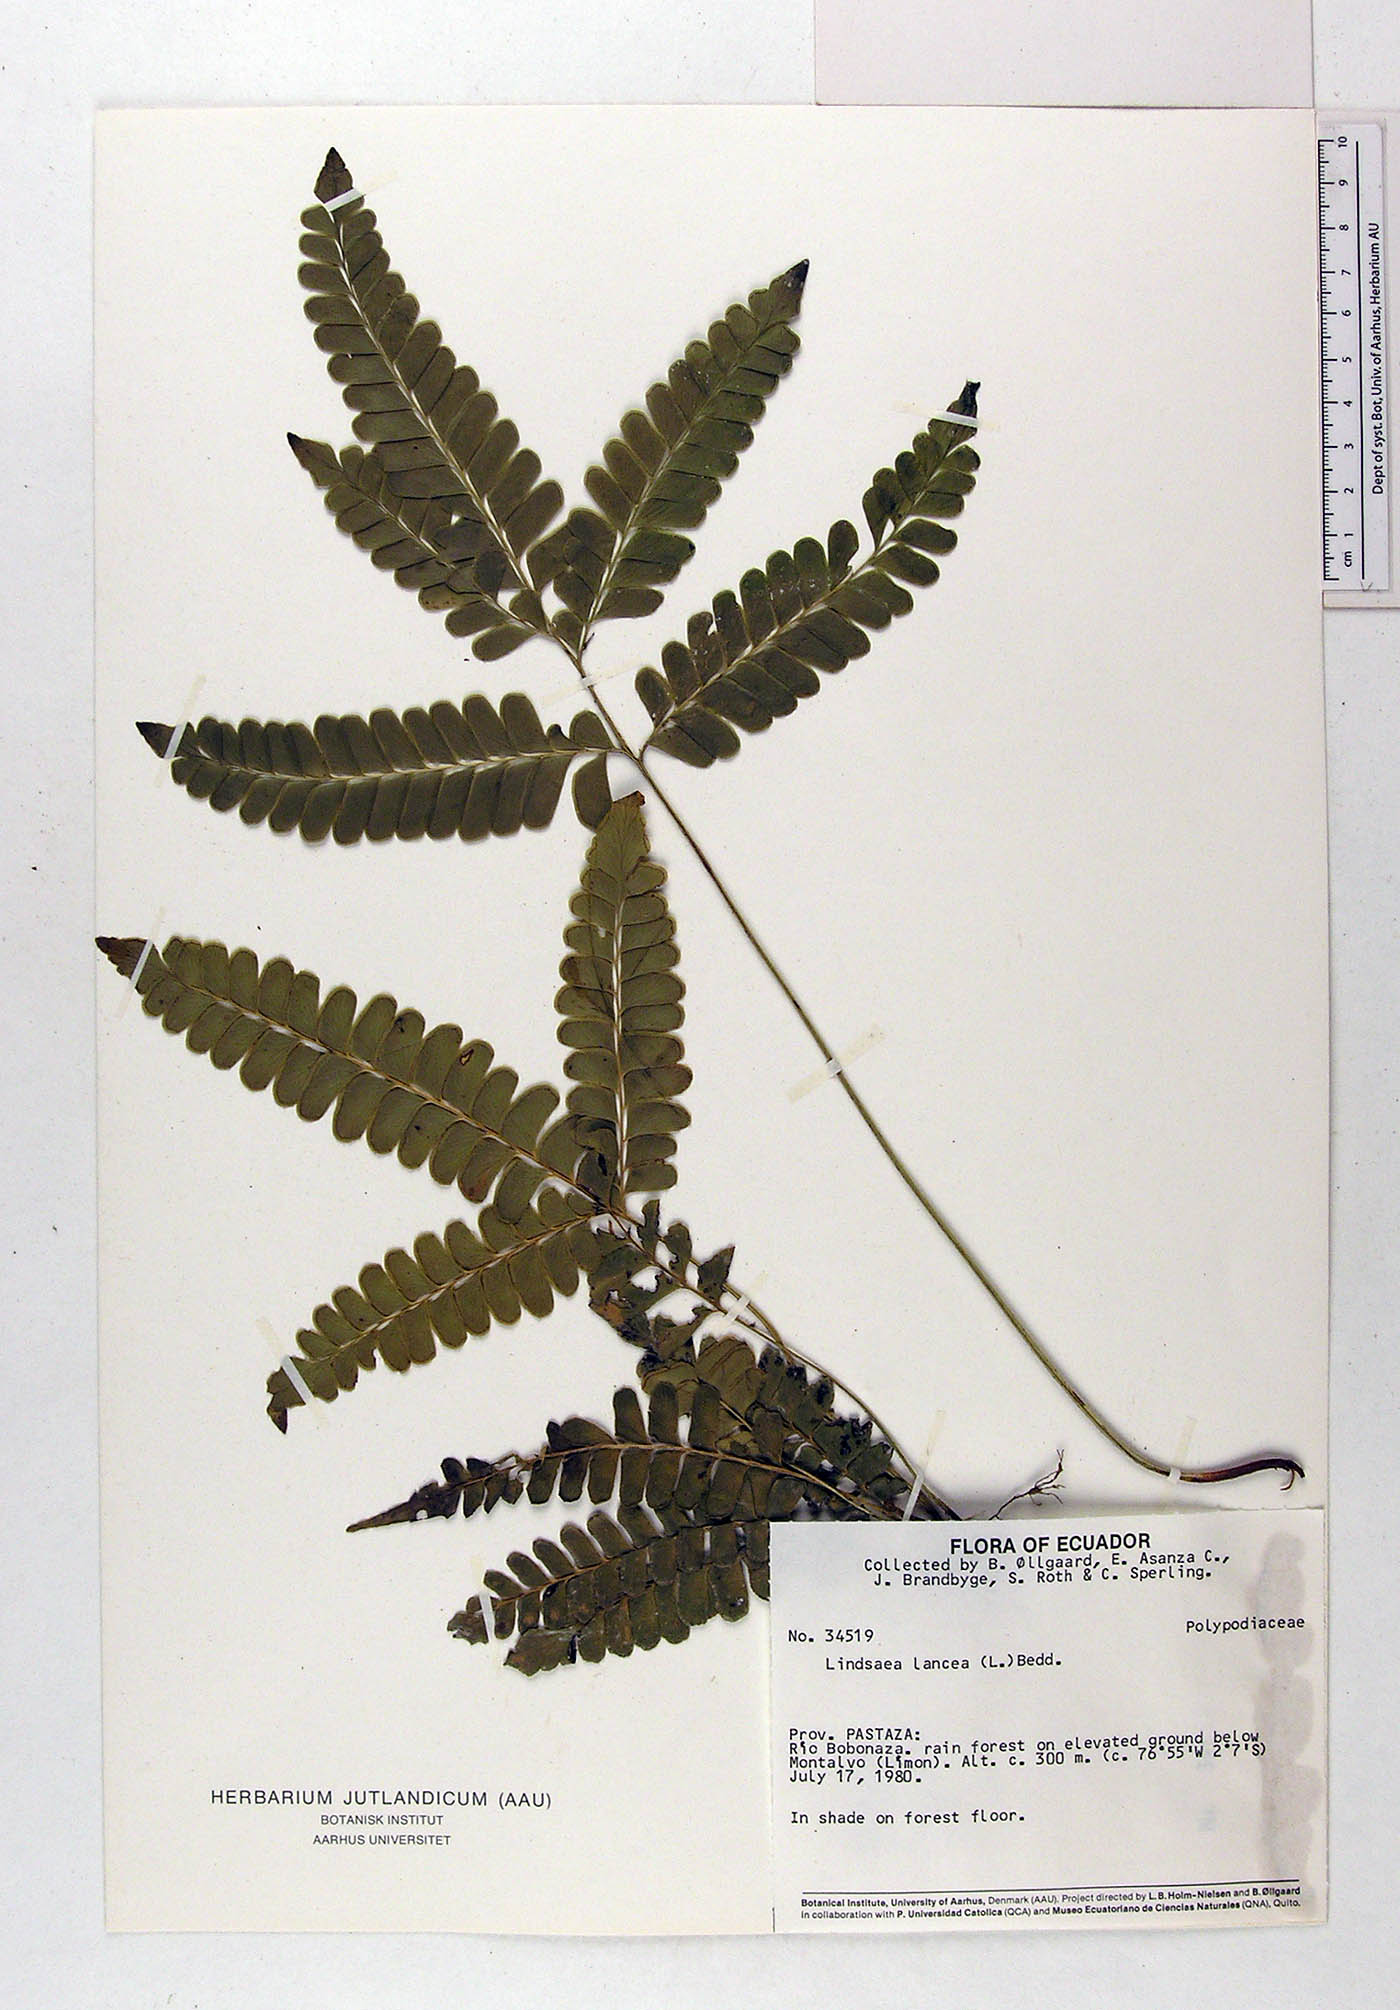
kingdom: Plantae
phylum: Tracheophyta
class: Polypodiopsida
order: Polypodiales
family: Dennstaedtiaceae
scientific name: Dennstaedtiaceae
